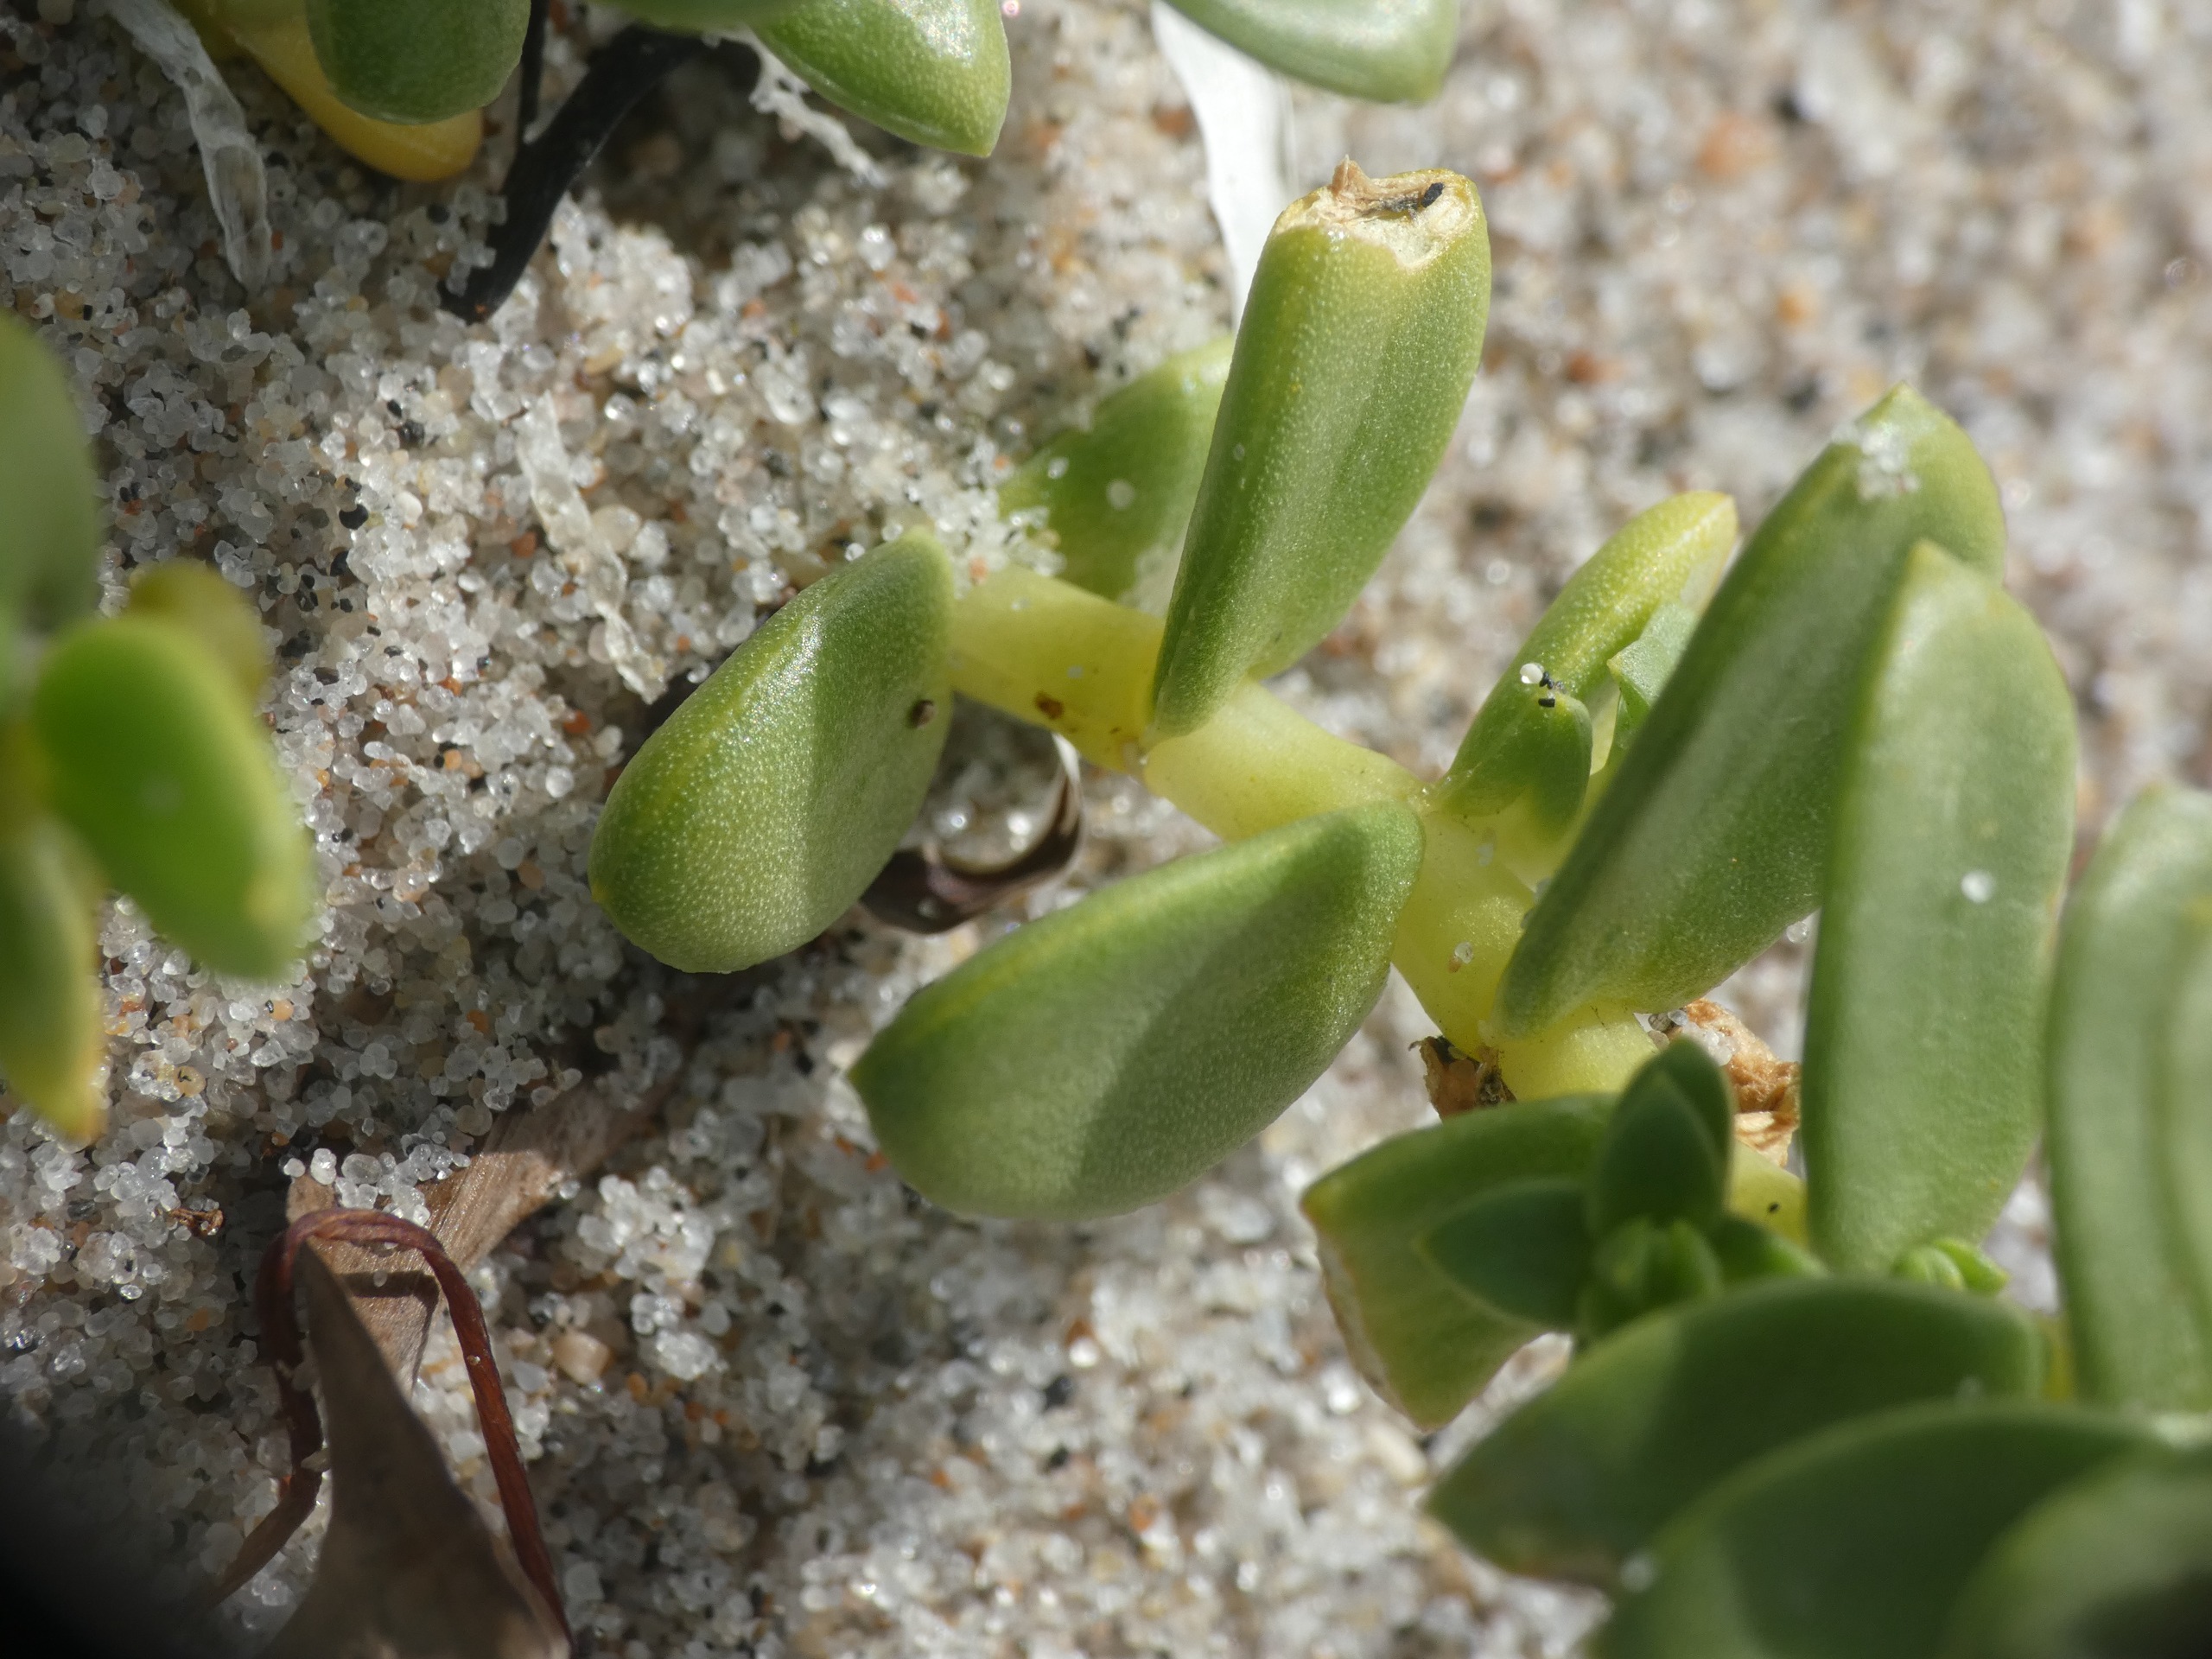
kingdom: Plantae
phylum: Tracheophyta
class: Magnoliopsida
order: Caryophyllales
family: Caryophyllaceae
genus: Honckenya
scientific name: Honckenya peploides
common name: Strandarve
